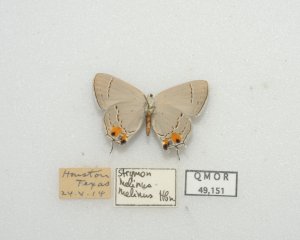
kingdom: Animalia
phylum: Arthropoda
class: Insecta
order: Lepidoptera
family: Lycaenidae
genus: Strymon
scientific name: Strymon melinus
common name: Gray Hairstreak
